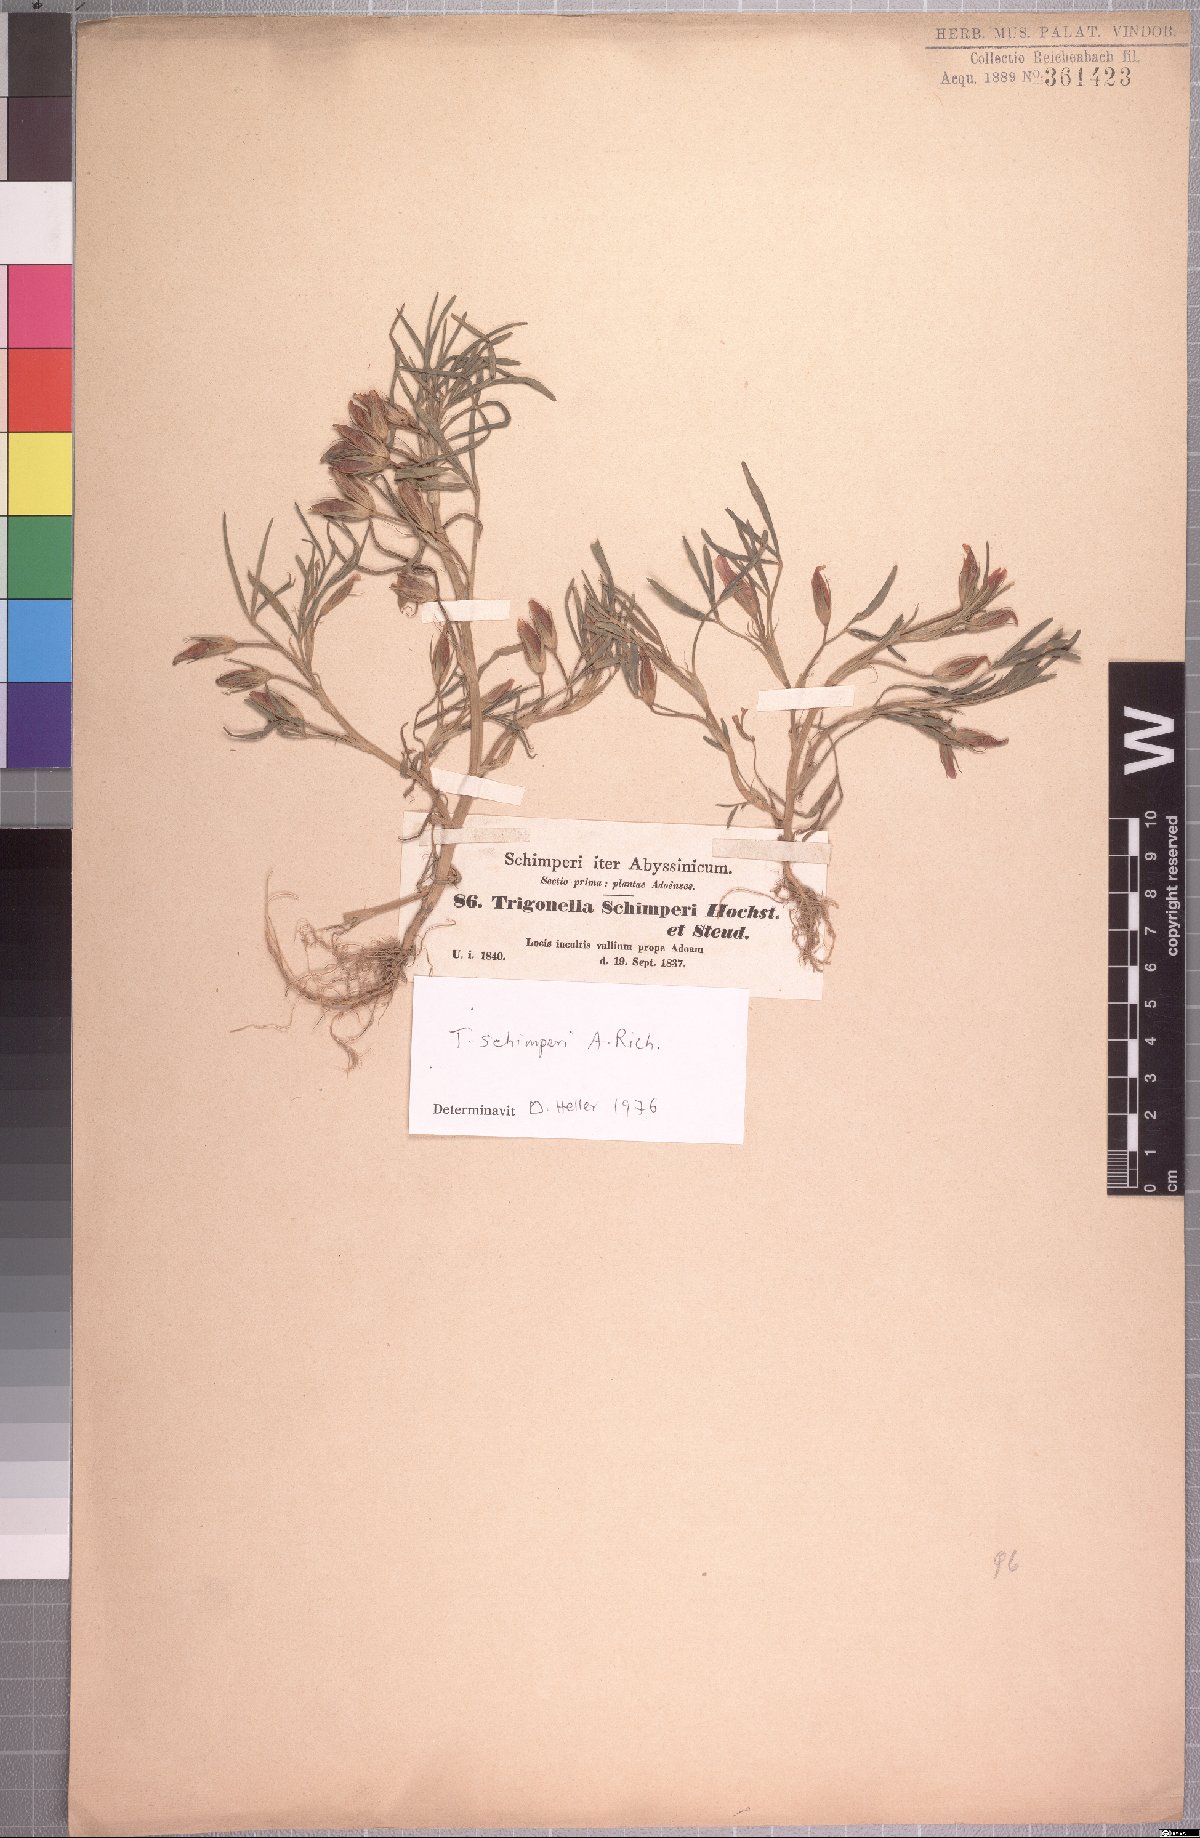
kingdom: Plantae
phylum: Tracheophyta
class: Magnoliopsida
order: Fabales
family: Fabaceae
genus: Trifolium
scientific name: Trifolium schimperi
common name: Schimper's clover
